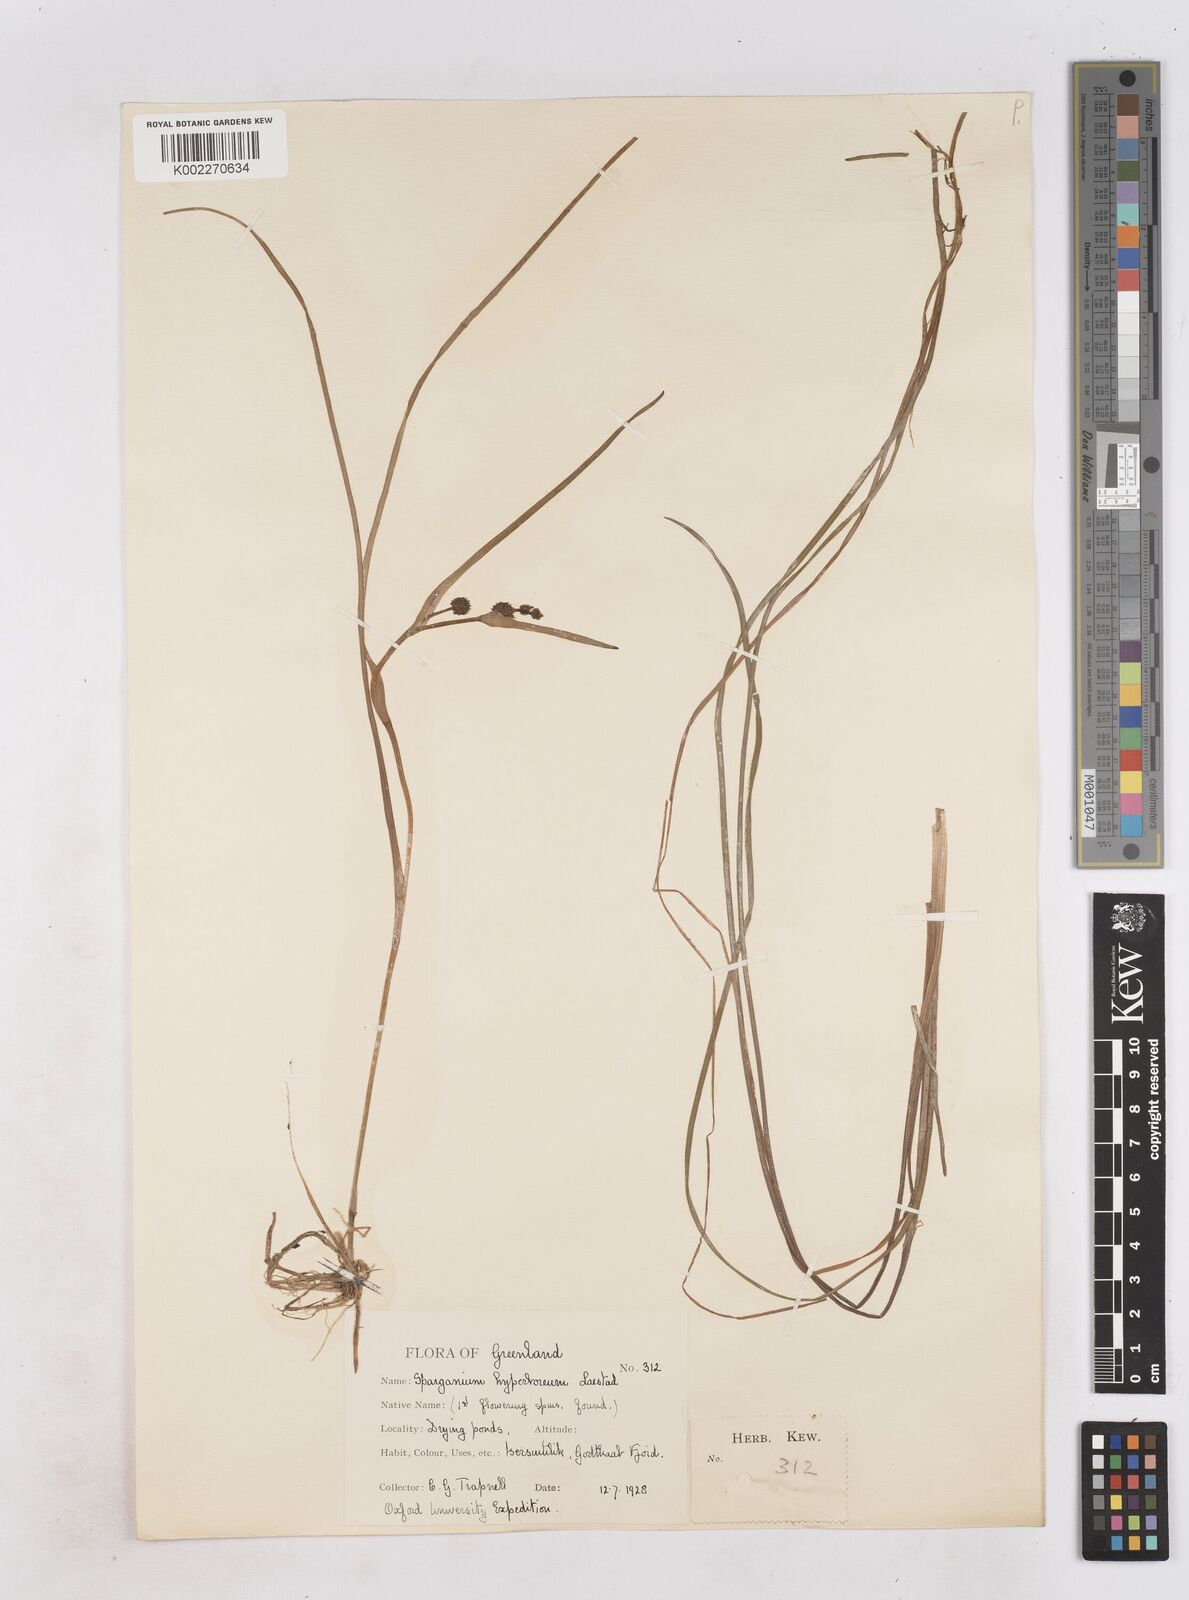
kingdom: Plantae
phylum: Tracheophyta
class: Liliopsida
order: Poales
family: Typhaceae
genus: Sparganium
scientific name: Sparganium hyperboreum
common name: Arctic burreed
